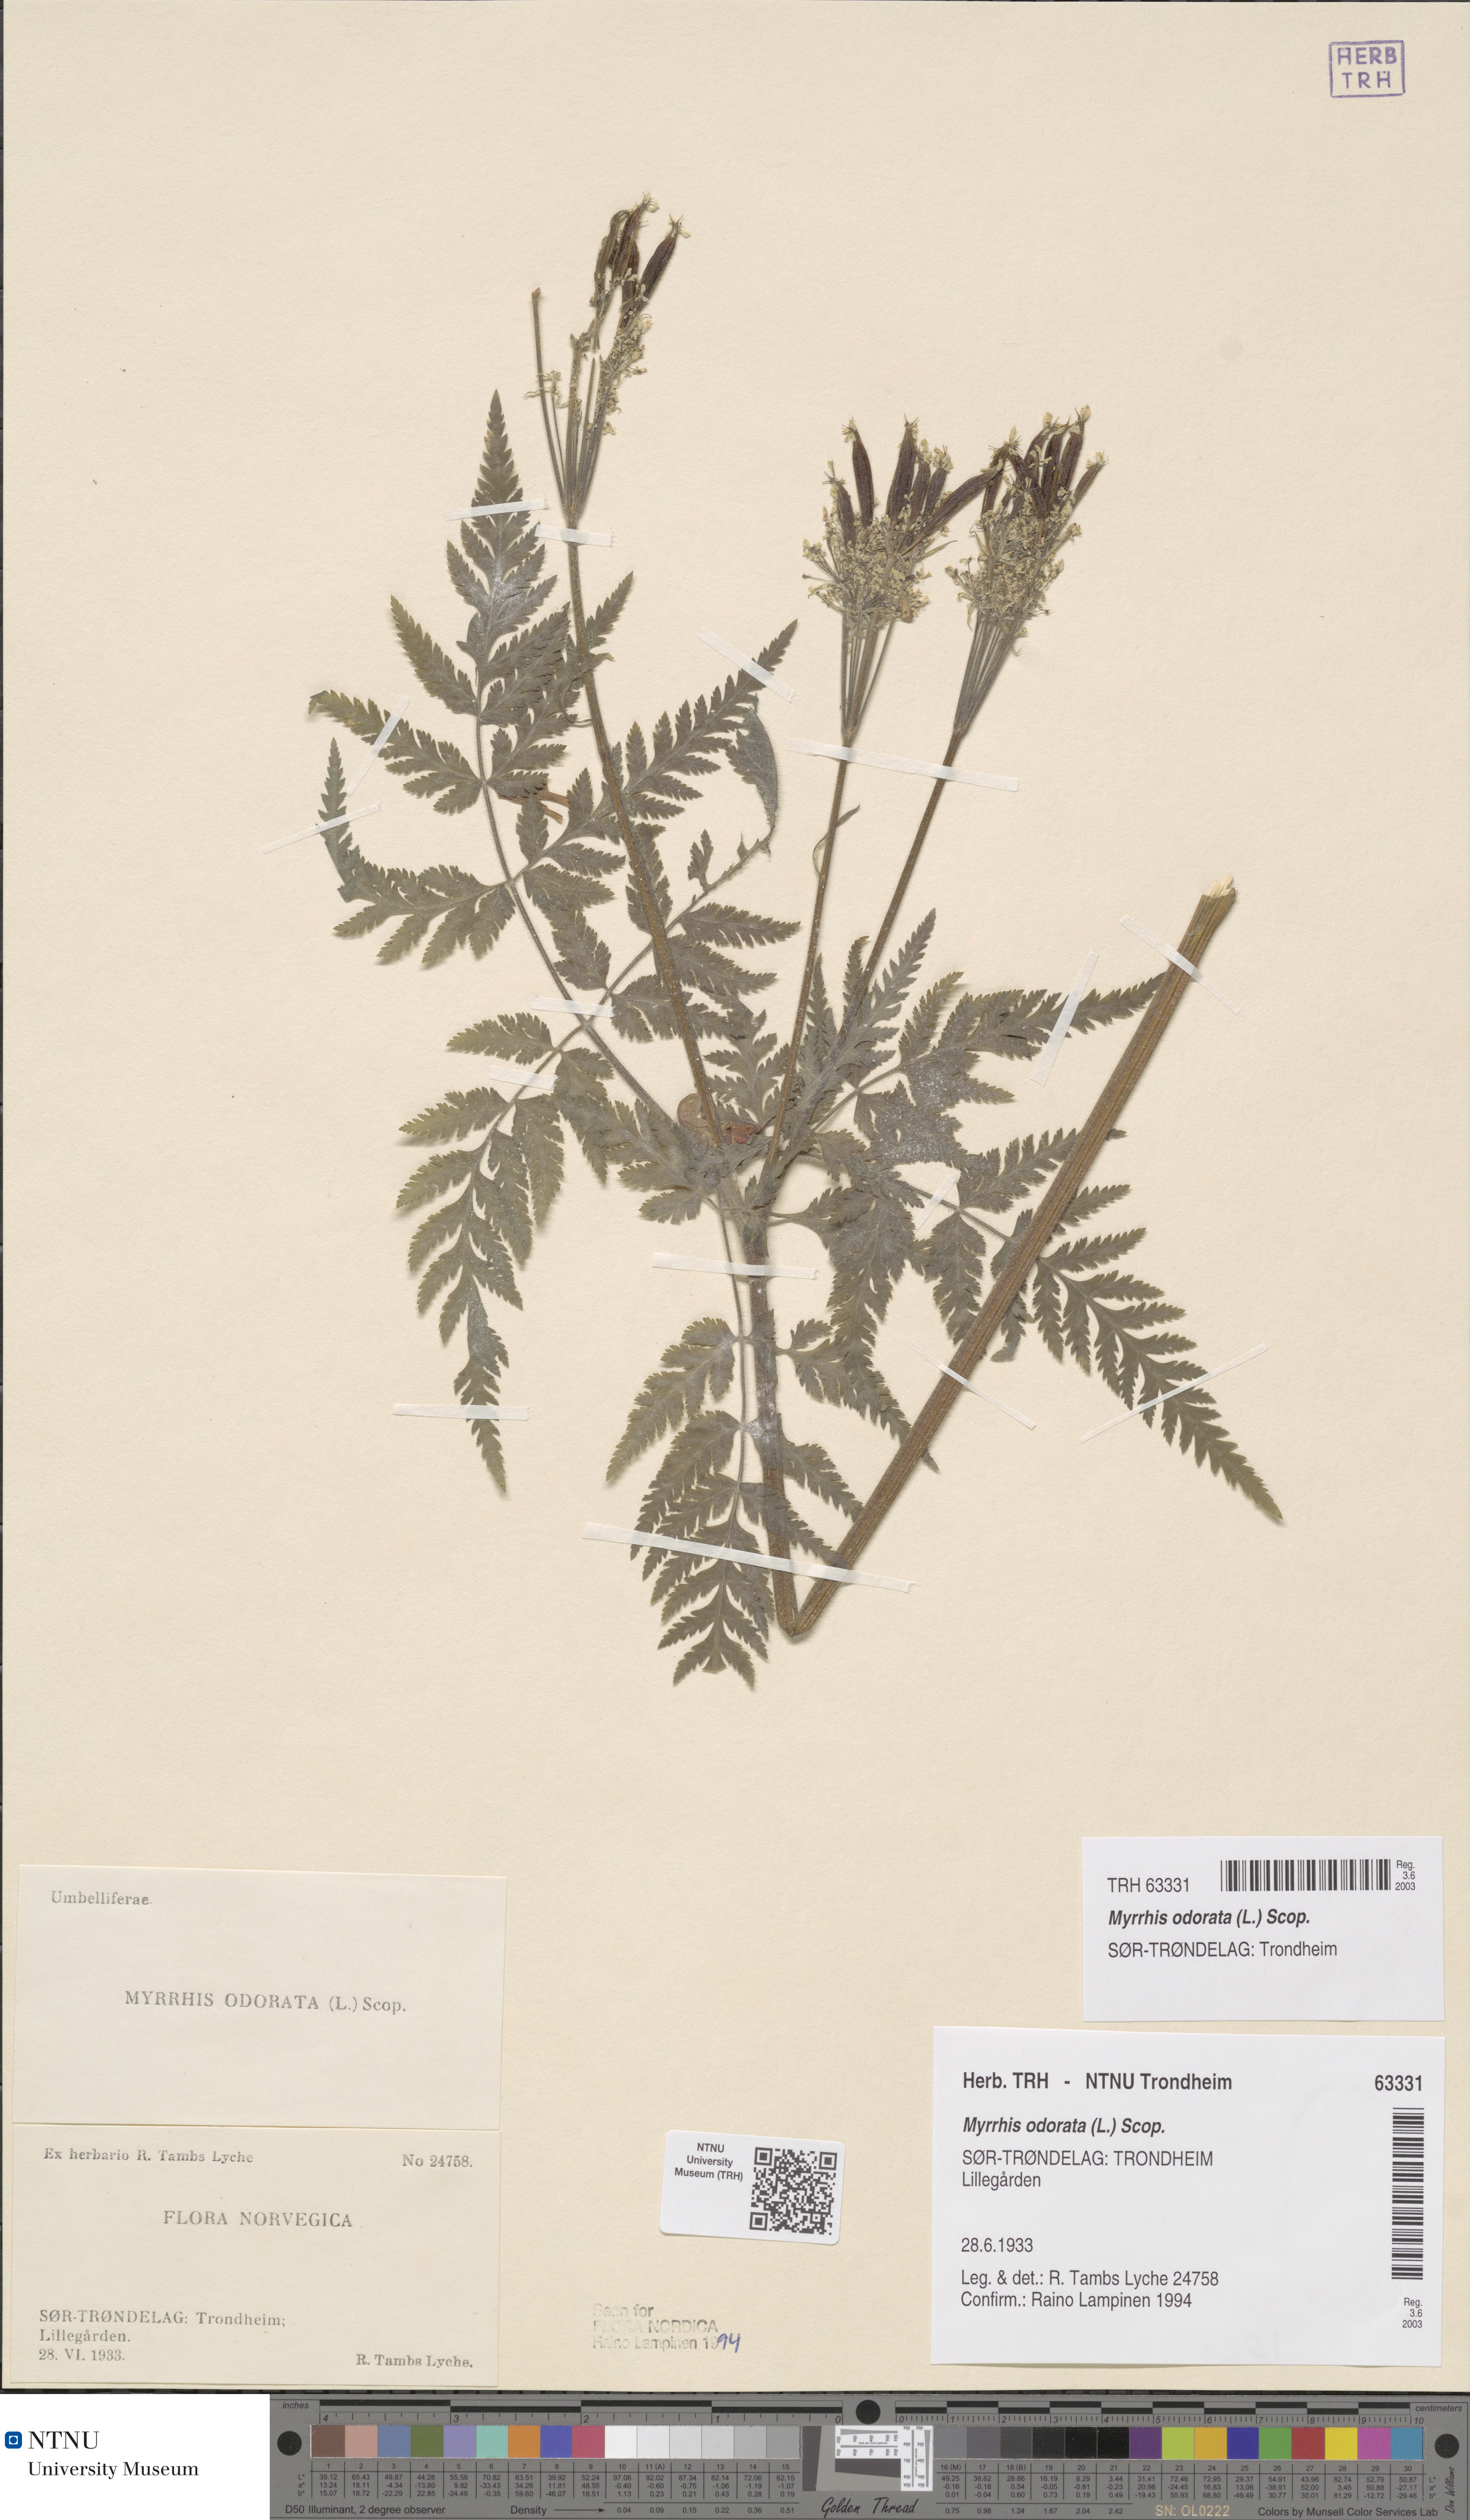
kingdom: Plantae
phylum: Tracheophyta
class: Magnoliopsida
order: Apiales
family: Apiaceae
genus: Myrrhis
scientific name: Myrrhis odorata
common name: Sweet cicely
